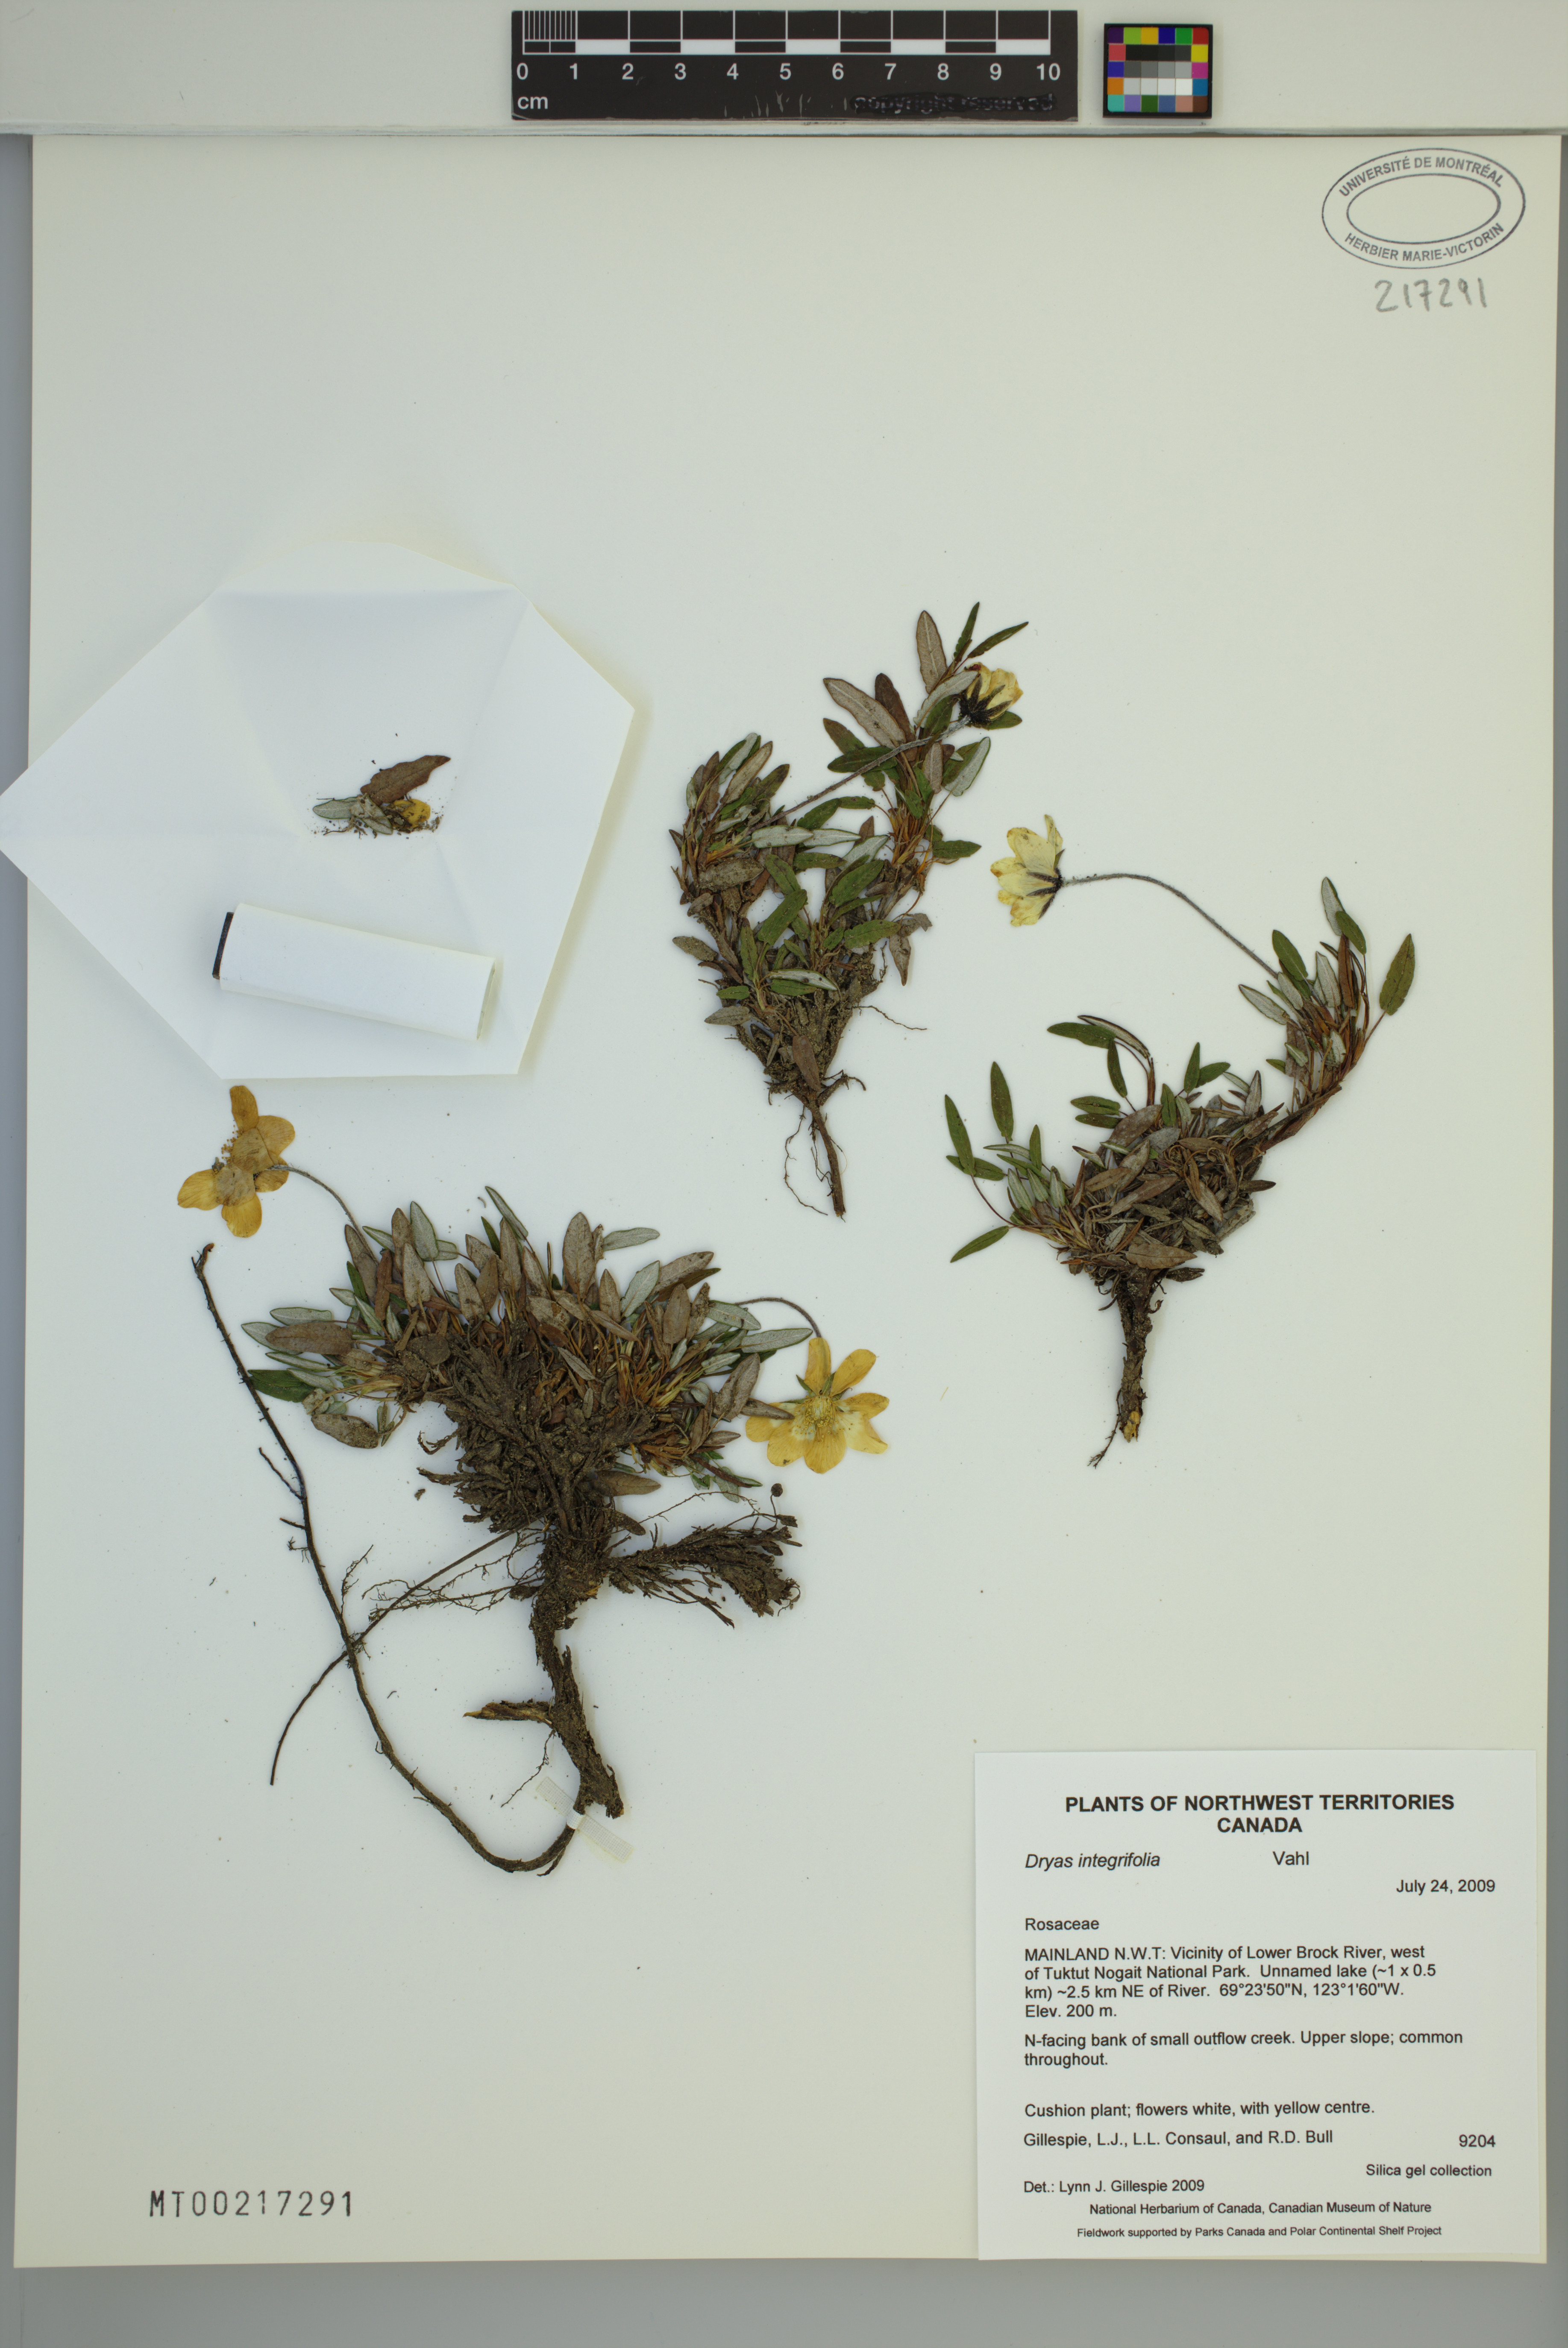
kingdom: Plantae
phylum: Tracheophyta
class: Magnoliopsida
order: Rosales
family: Rosaceae
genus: Dryas
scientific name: Dryas integrifolia
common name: Entire-leaved mountain avens
